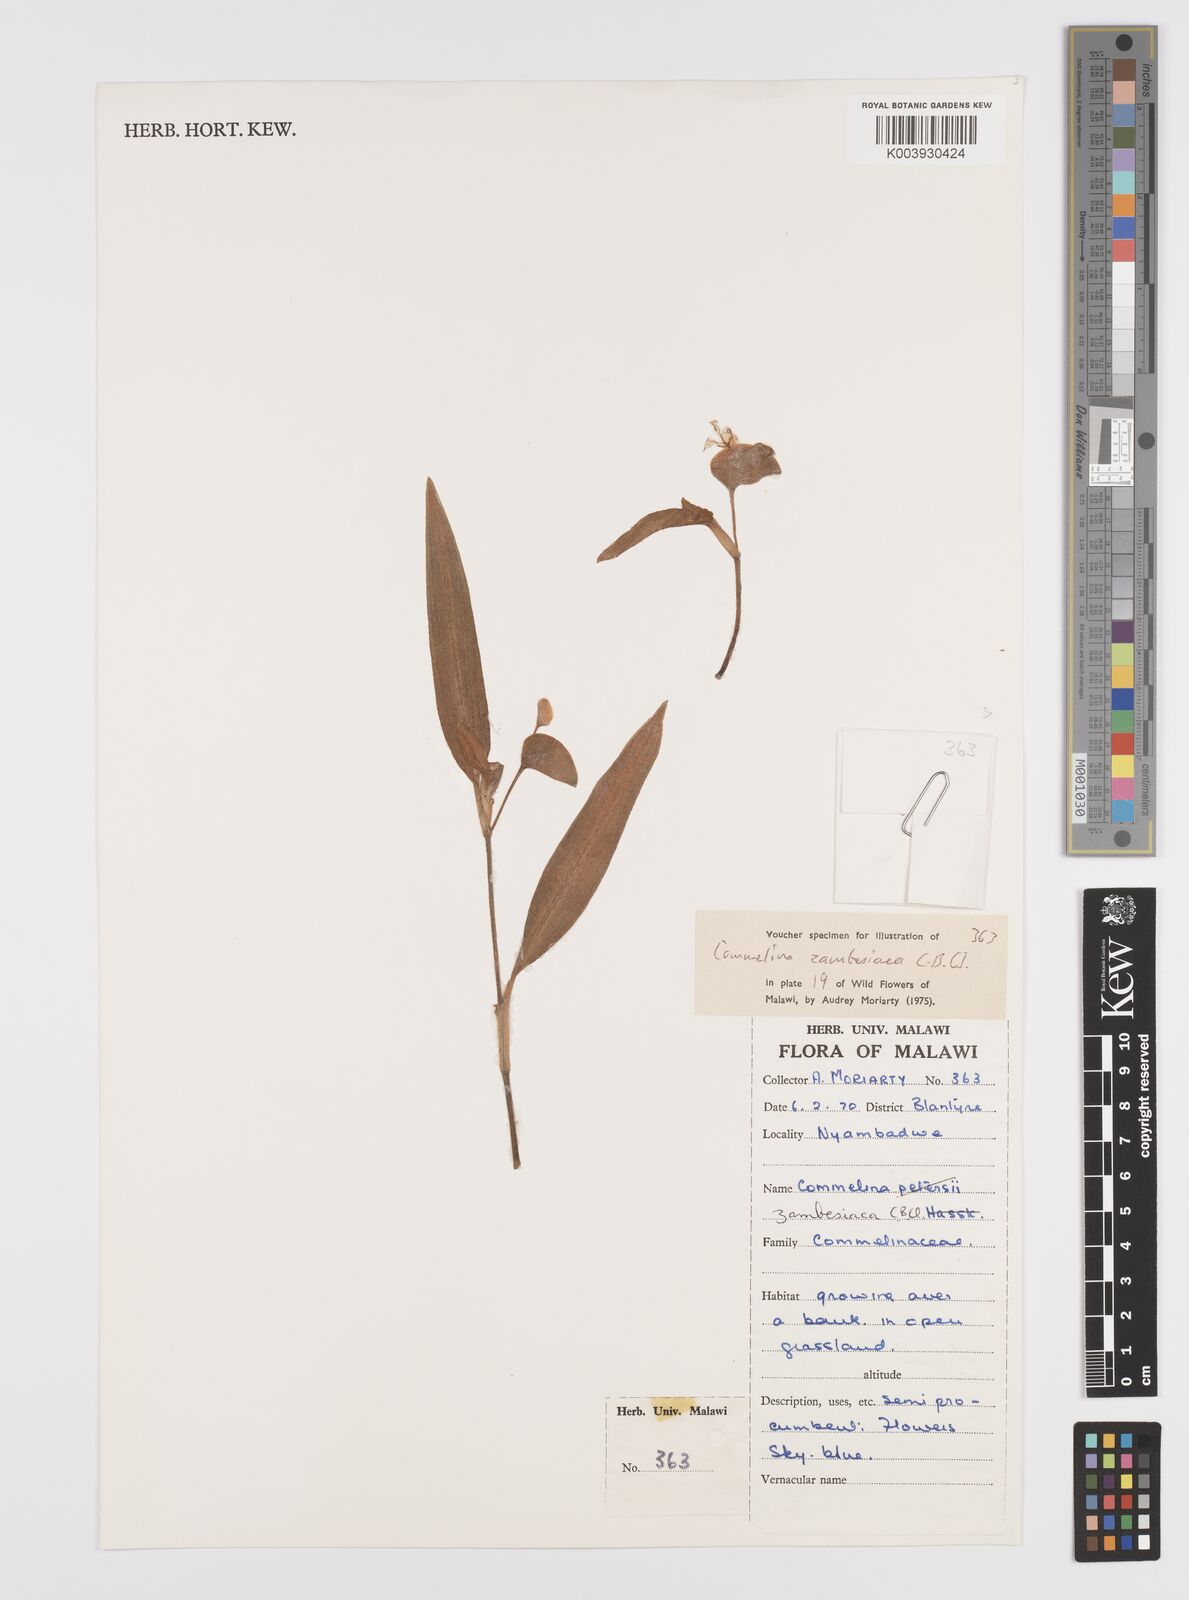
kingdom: Plantae
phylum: Tracheophyta
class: Liliopsida
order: Commelinales
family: Commelinaceae
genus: Commelina
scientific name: Commelina zambesica
